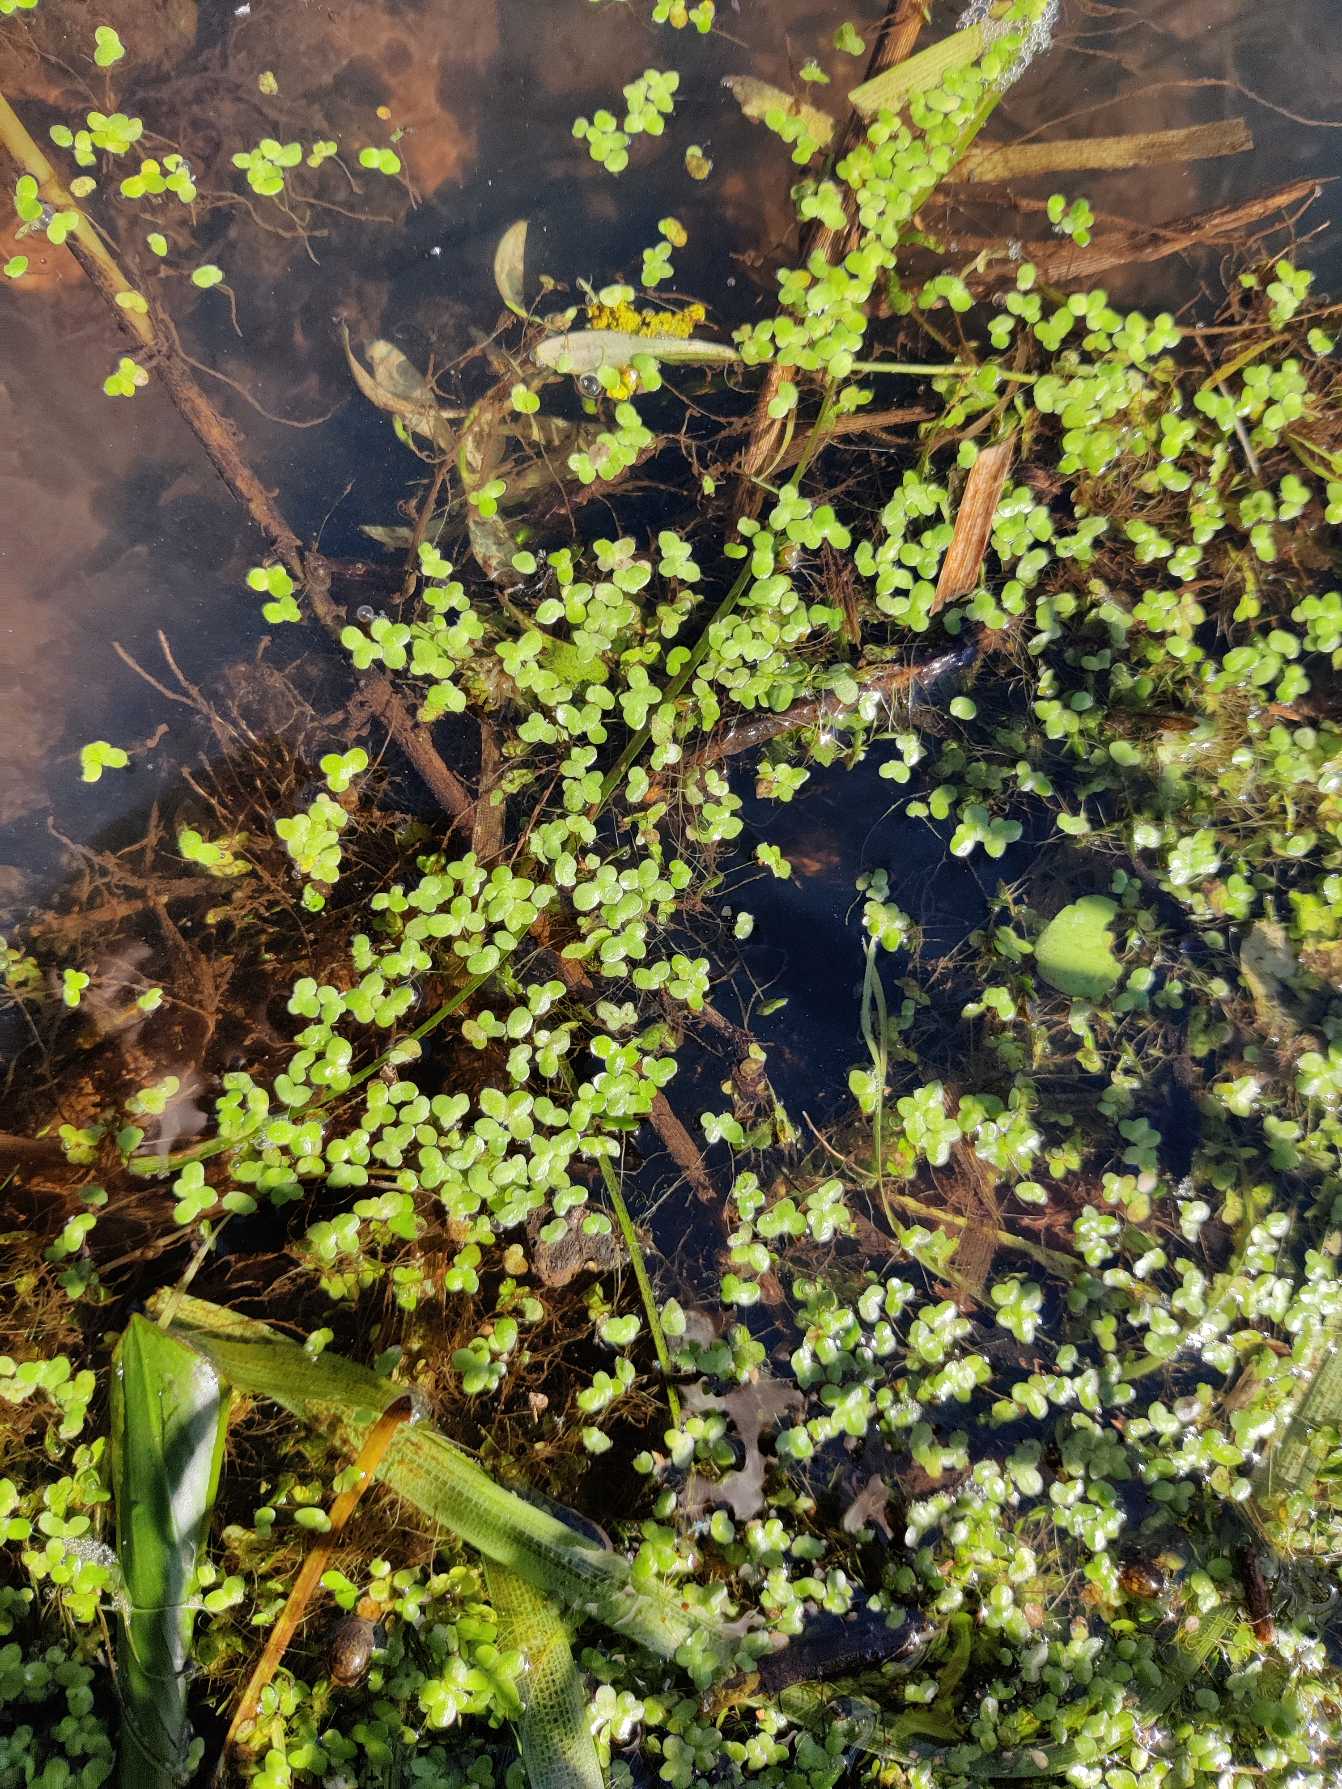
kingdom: Plantae
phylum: Tracheophyta
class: Liliopsida
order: Alismatales
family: Araceae
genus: Lemna
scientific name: Lemna minor
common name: Liden andemad
